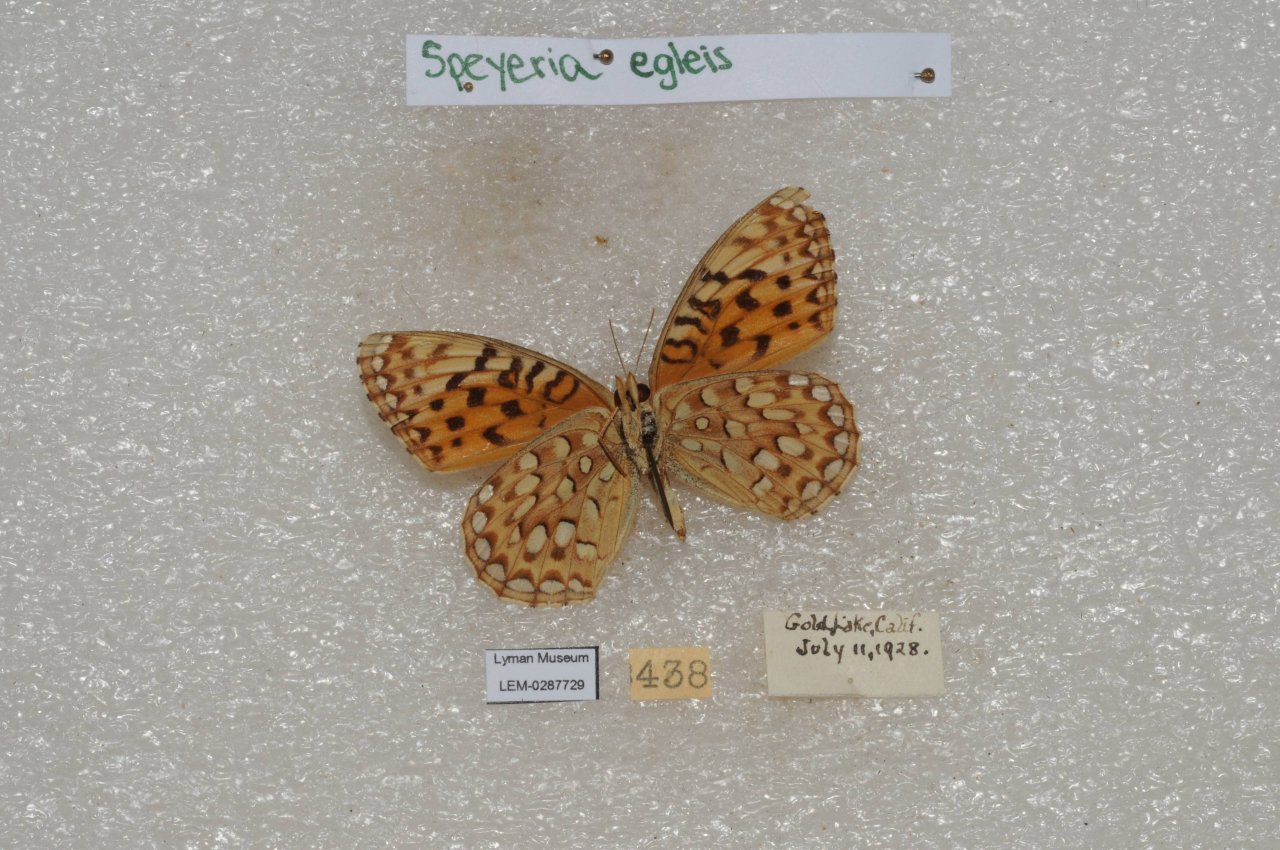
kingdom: Animalia
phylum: Arthropoda
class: Insecta
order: Lepidoptera
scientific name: Lepidoptera
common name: Butterflies
